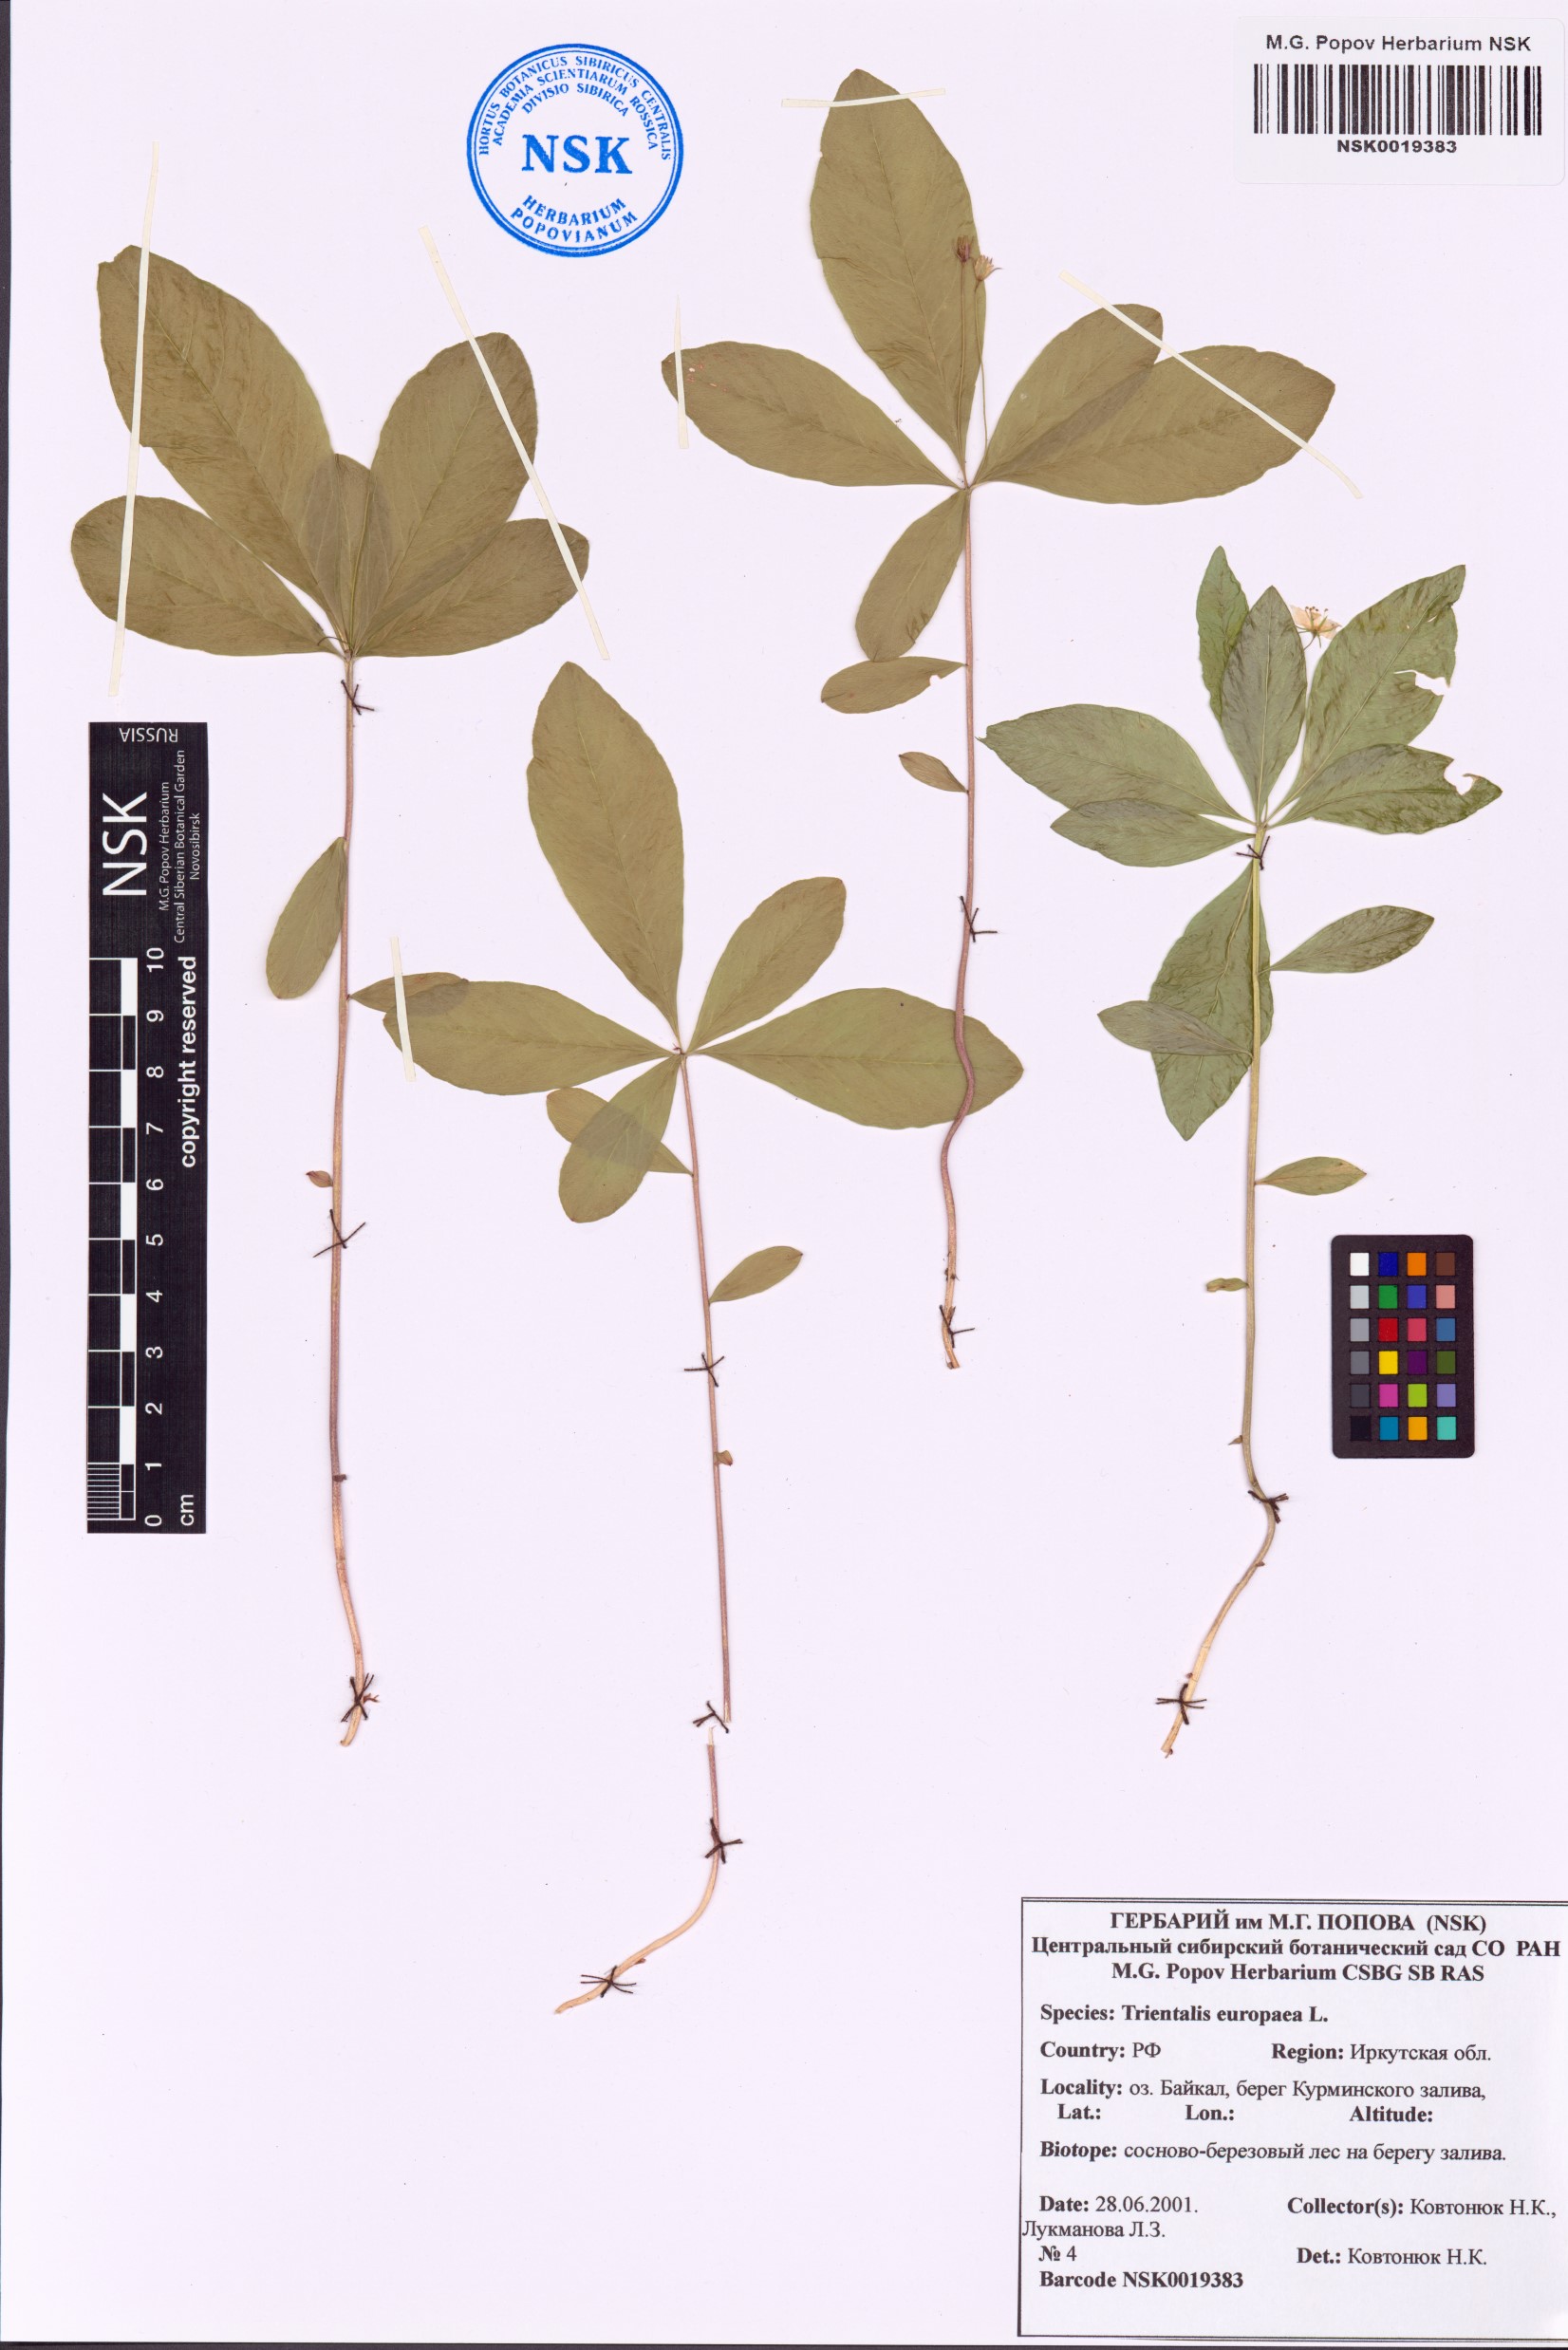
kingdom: Plantae
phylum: Tracheophyta
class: Magnoliopsida
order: Ericales
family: Primulaceae
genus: Lysimachia
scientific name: Lysimachia europaea
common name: Arctic starflower
